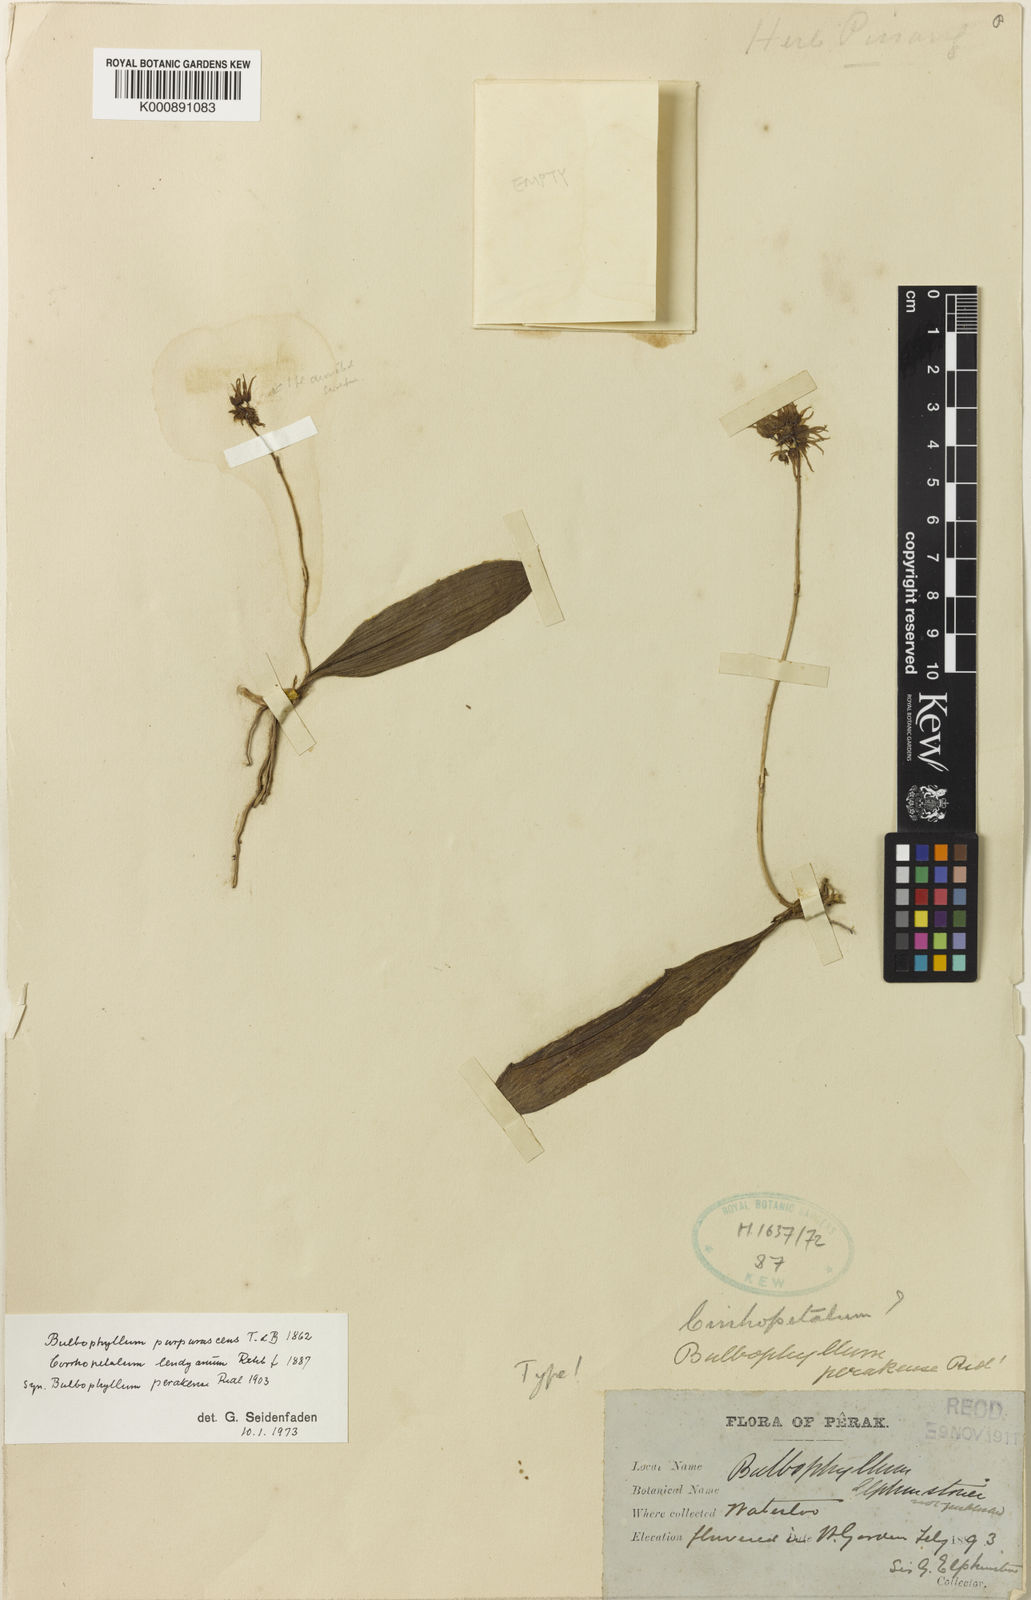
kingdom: Plantae
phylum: Tracheophyta
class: Liliopsida
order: Asparagales
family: Orchidaceae
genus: Bulbophyllum
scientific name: Bulbophyllum purpurascens
